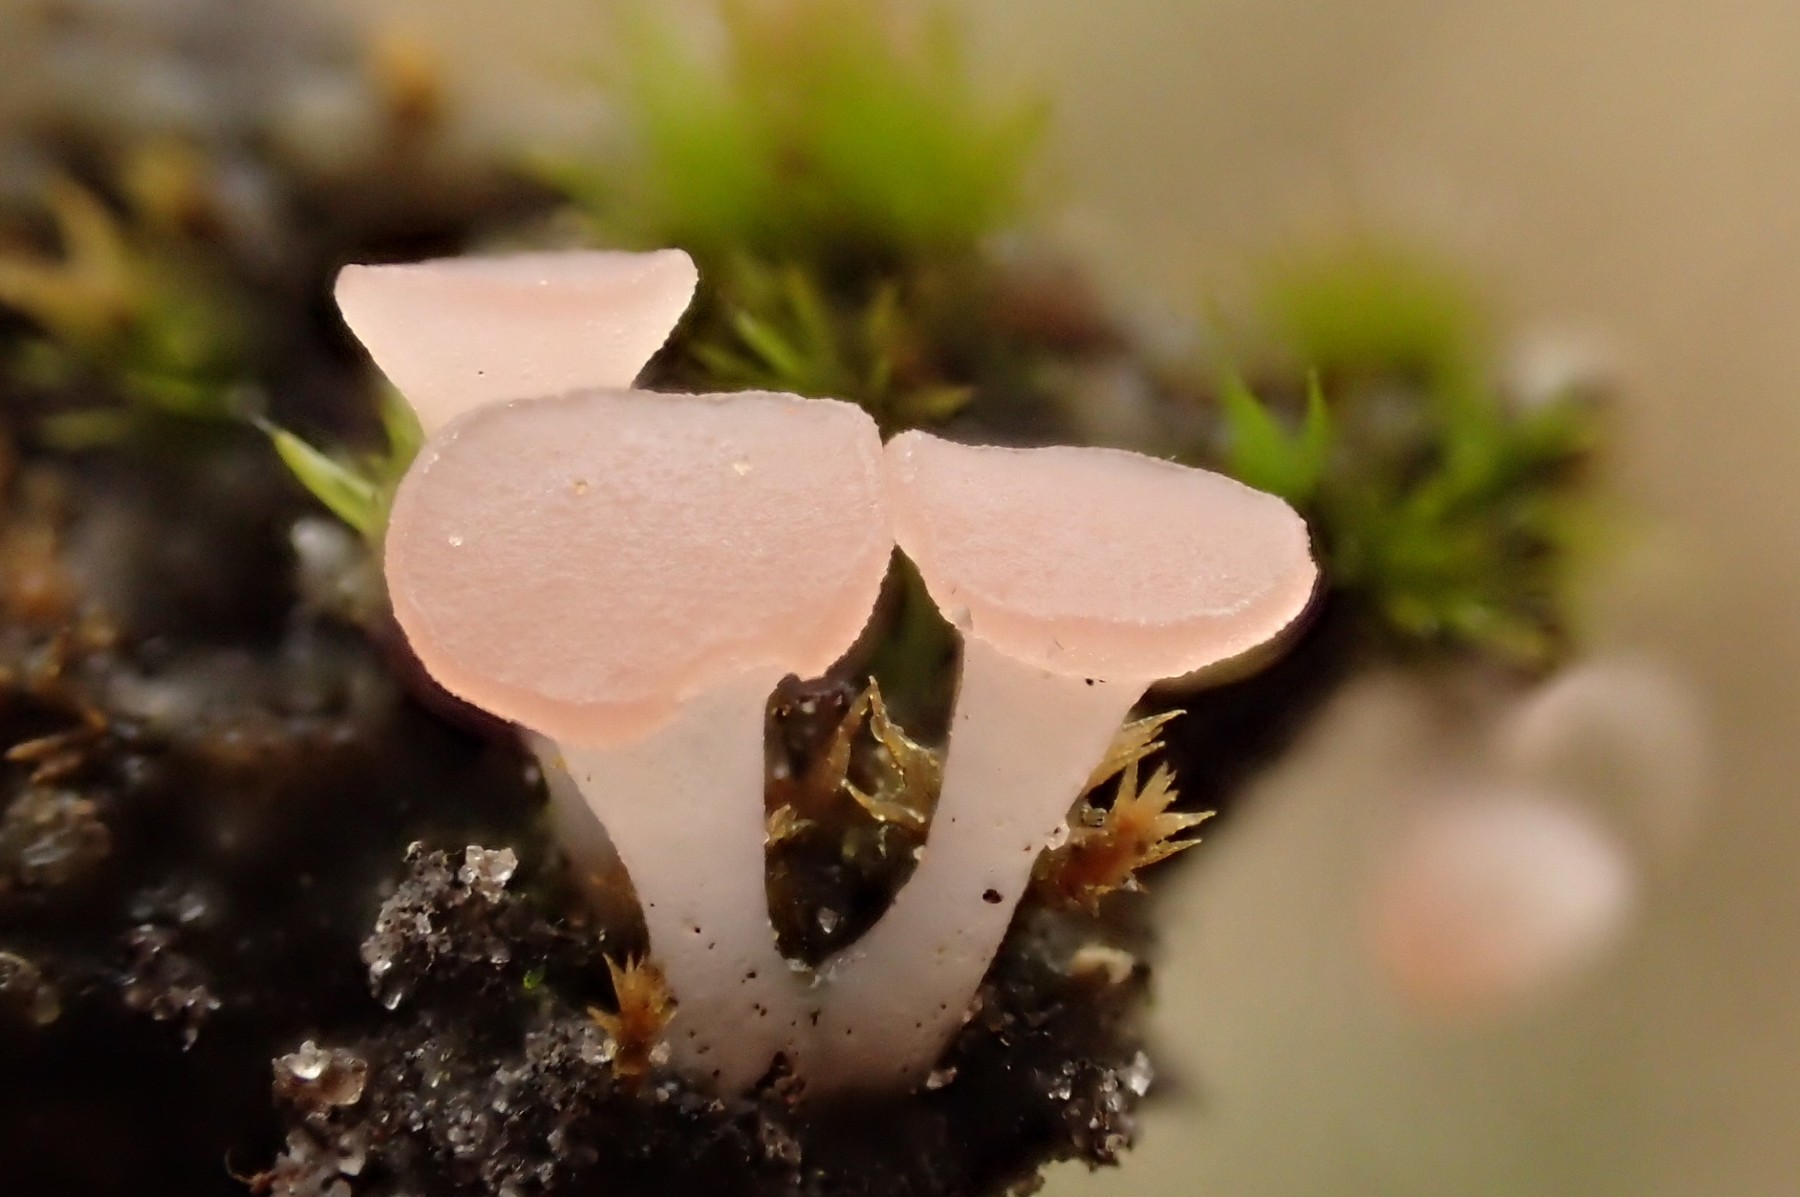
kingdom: Fungi
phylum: Ascomycota
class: Leotiomycetes
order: Helotiales
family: Hyaloscyphaceae
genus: Roseodiscus
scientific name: Roseodiscus formosus
